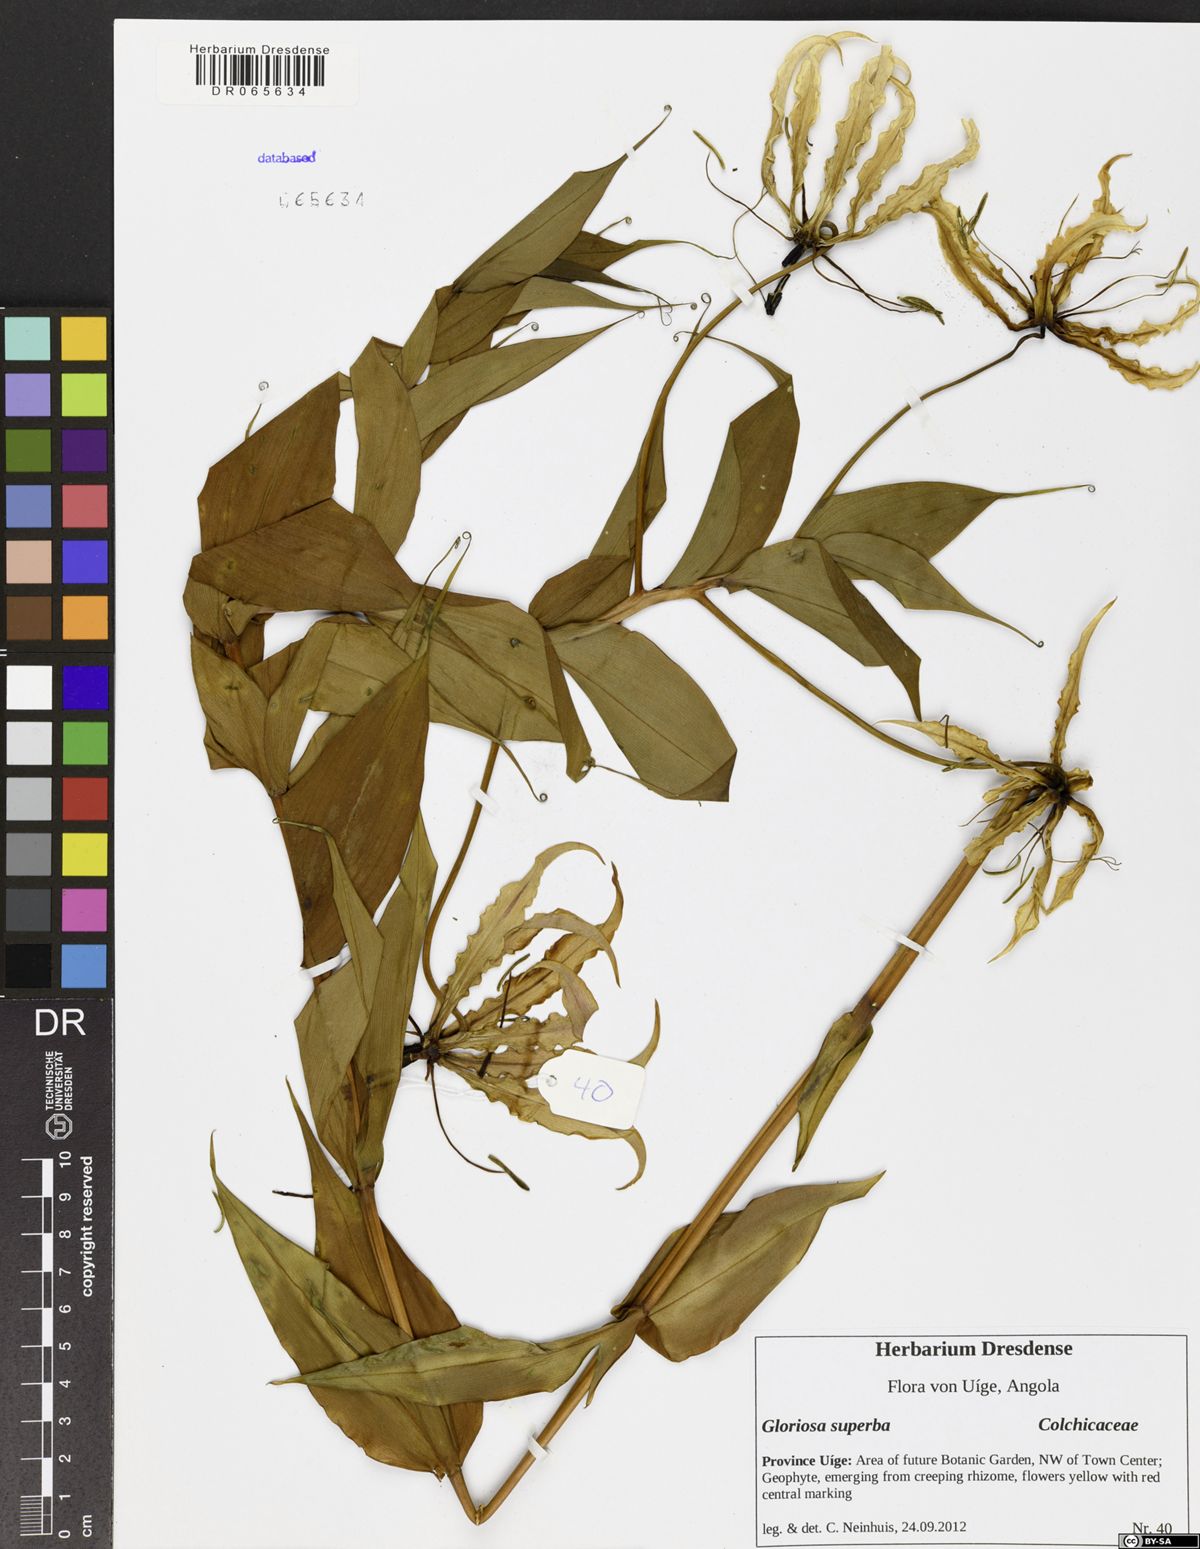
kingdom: Plantae
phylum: Tracheophyta
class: Liliopsida
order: Liliales
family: Colchicaceae
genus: Gloriosa
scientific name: Gloriosa superba
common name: Flame lily
